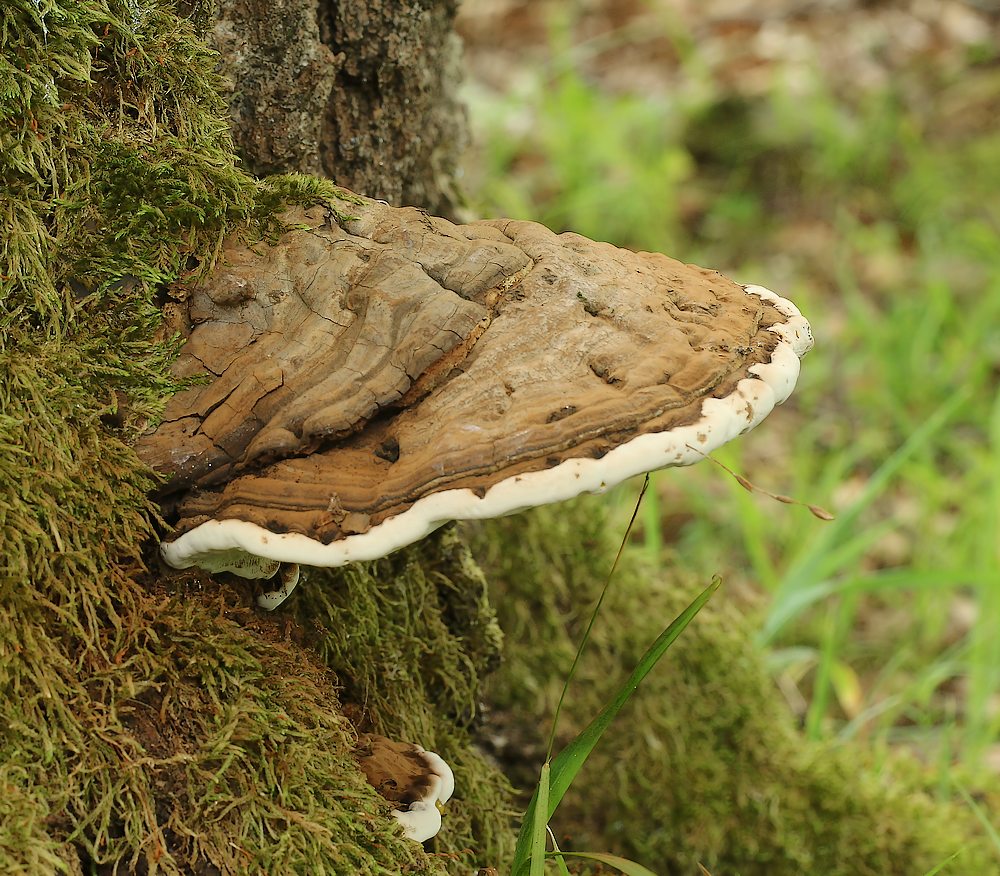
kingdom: Fungi
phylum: Basidiomycota
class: Agaricomycetes
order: Polyporales
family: Polyporaceae
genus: Ganoderma
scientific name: Ganoderma pfeifferi
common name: kobberrød lakporesvamp
